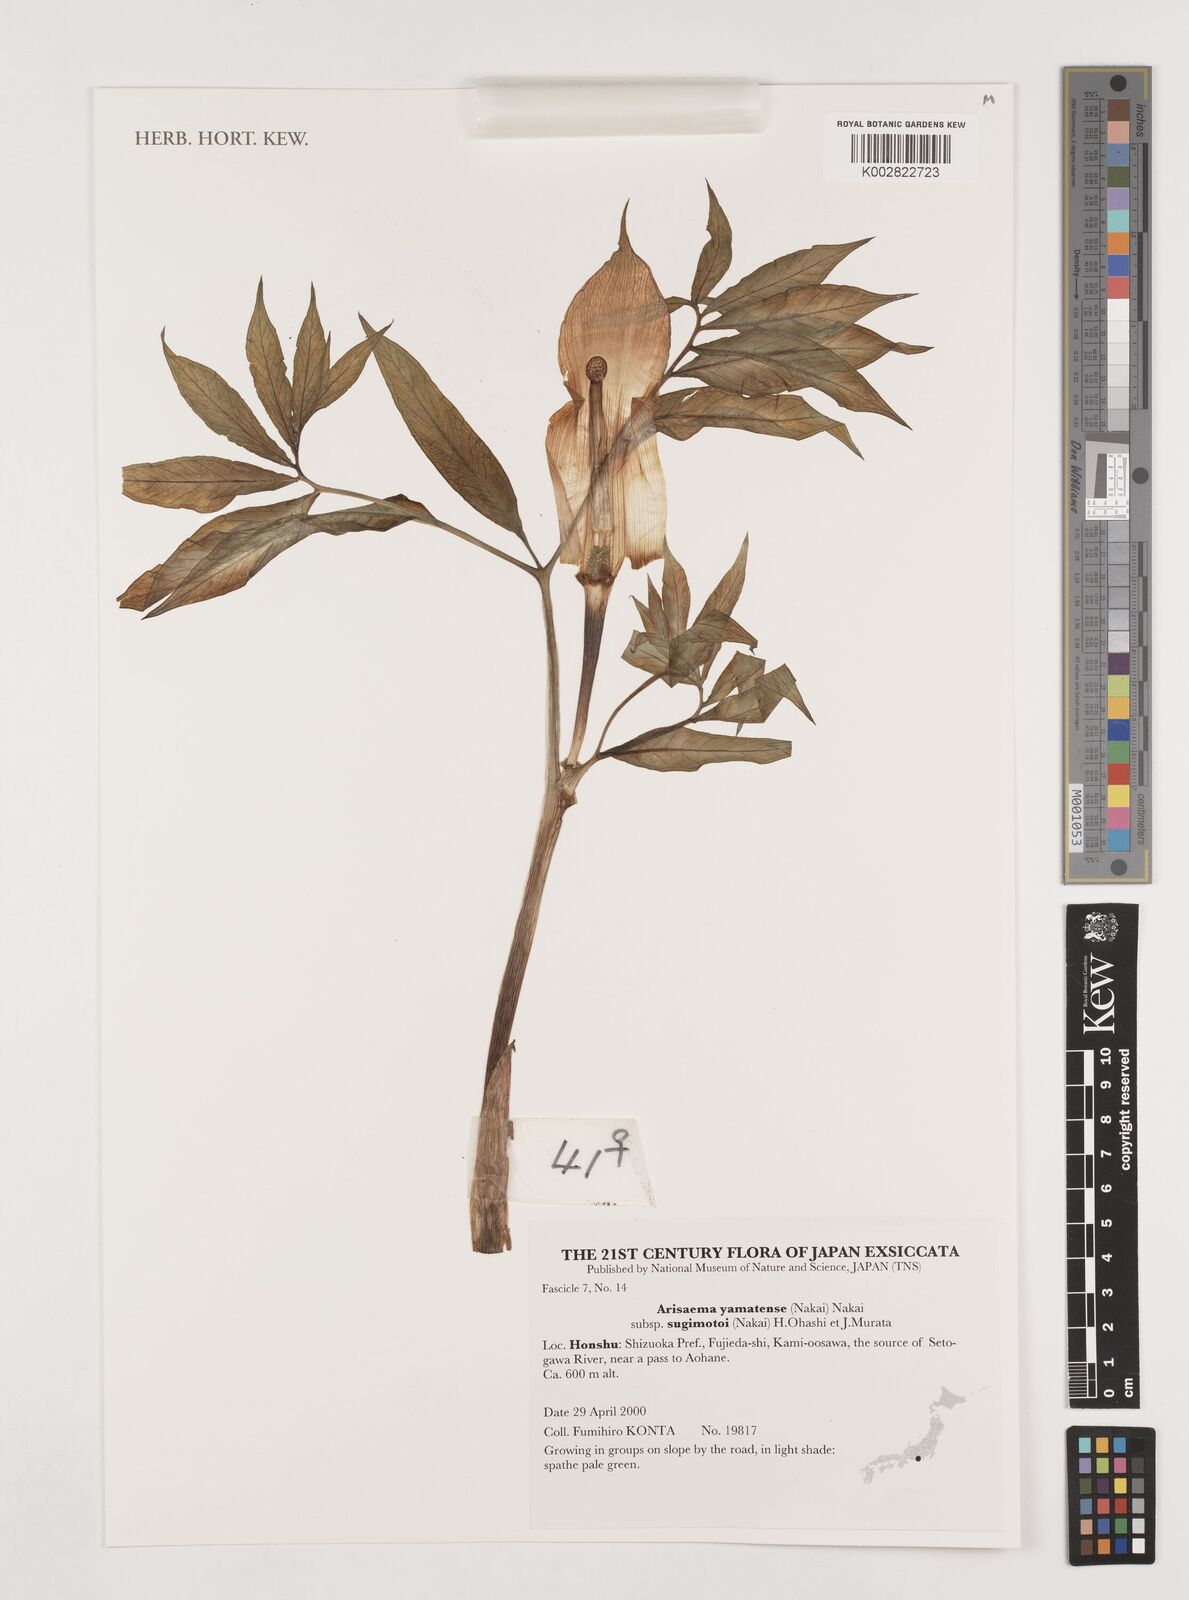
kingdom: Plantae
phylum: Tracheophyta
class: Liliopsida
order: Alismatales
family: Araceae
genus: Arisaema
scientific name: Arisaema yamatense
